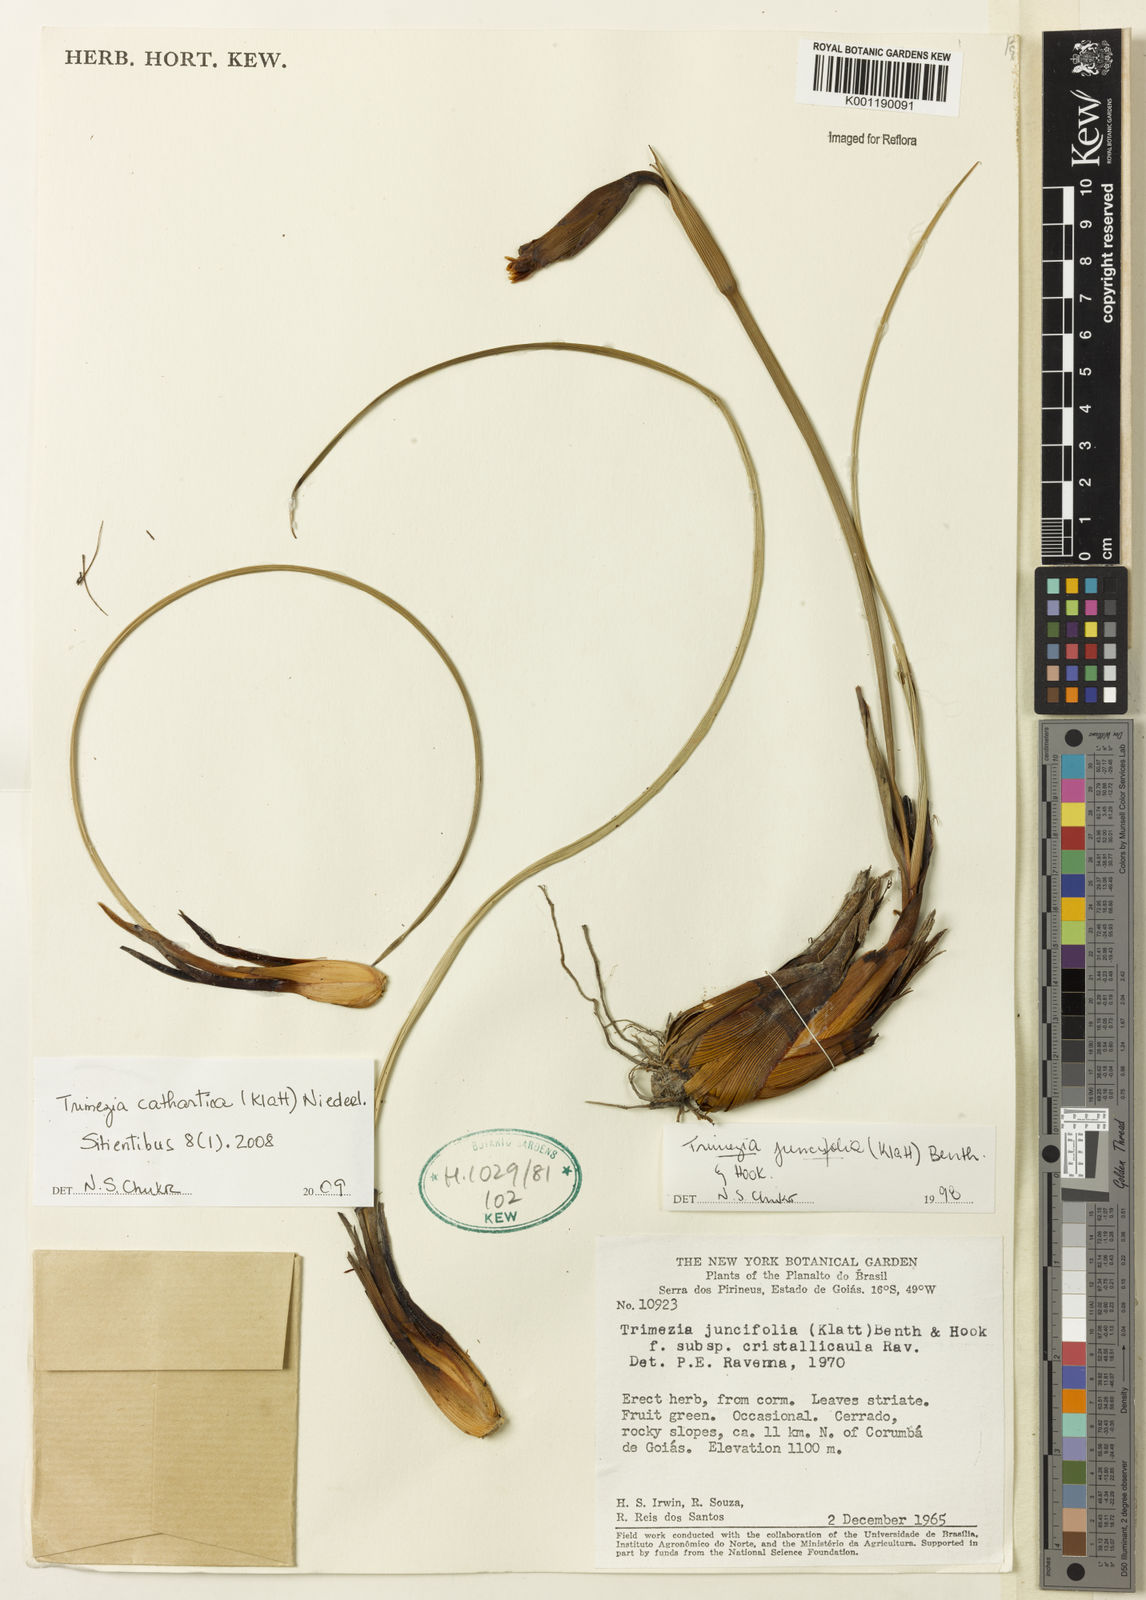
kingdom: Plantae
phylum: Tracheophyta
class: Liliopsida
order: Asparagales
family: Iridaceae
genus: Trimezia
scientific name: Trimezia cathartica
